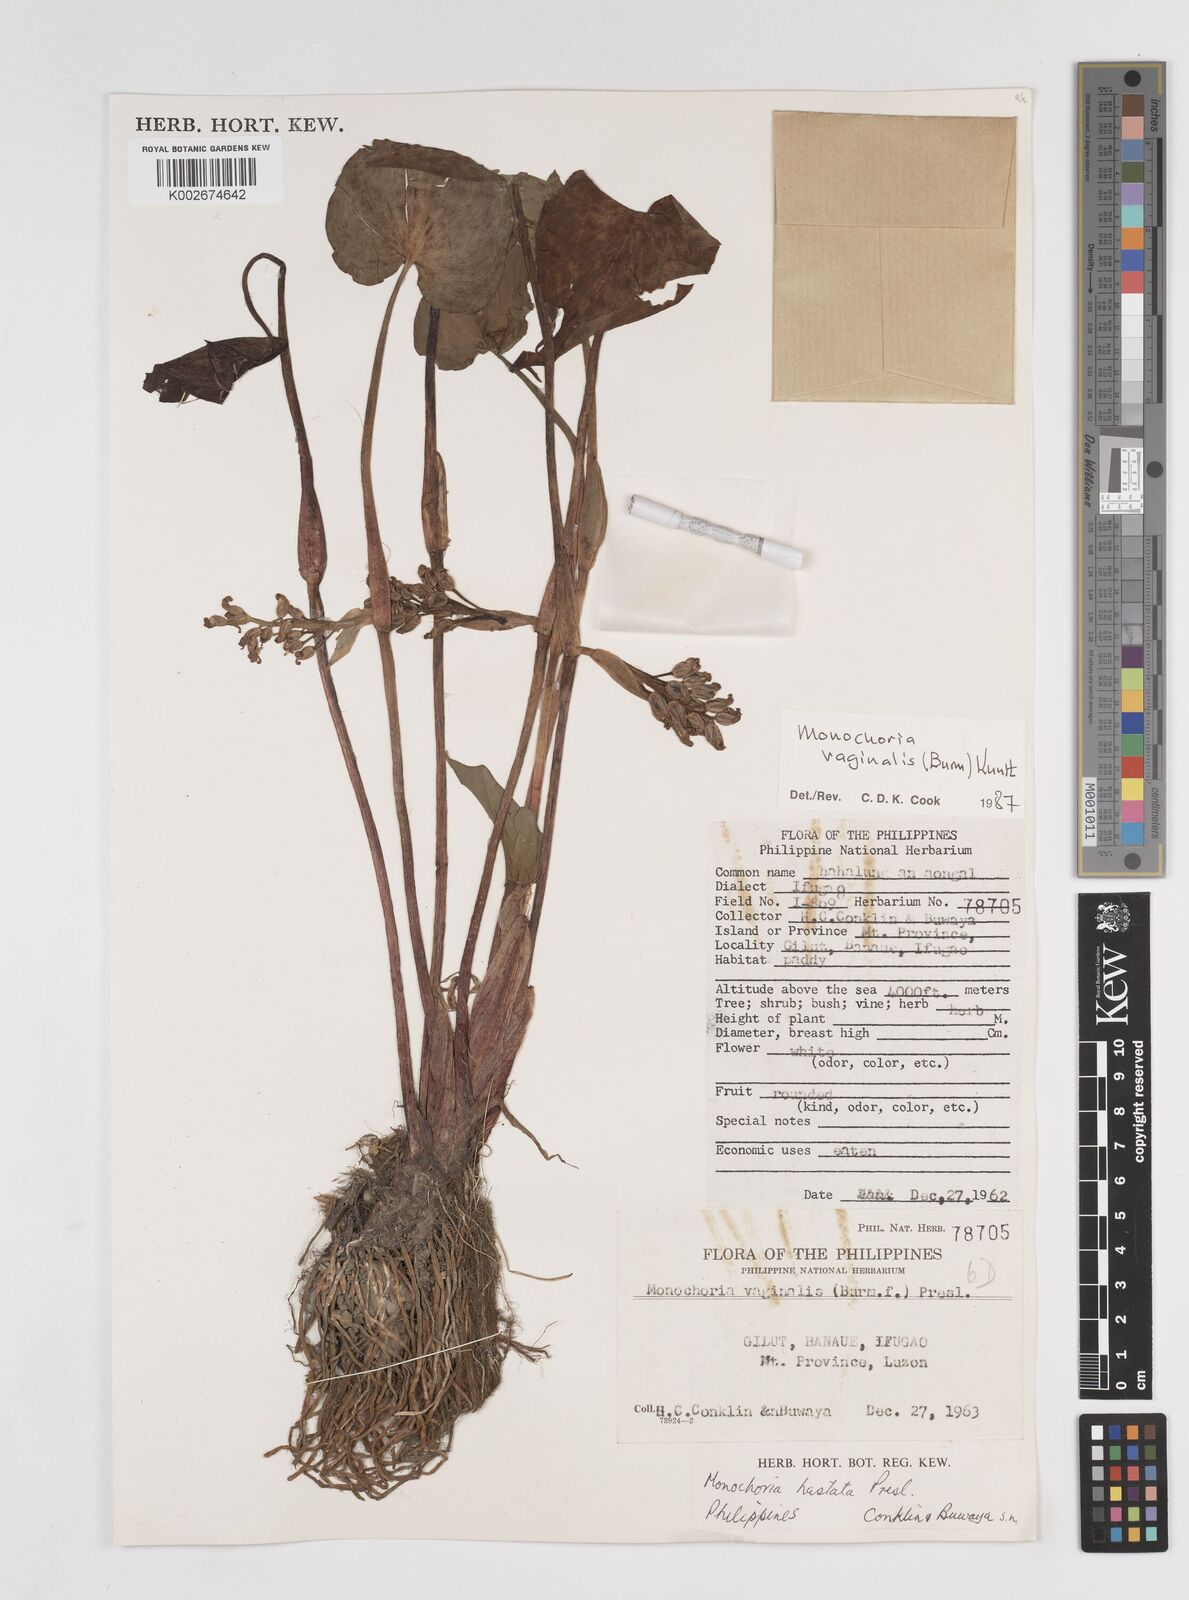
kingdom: Plantae
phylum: Tracheophyta
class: Liliopsida
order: Commelinales
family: Pontederiaceae
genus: Pontederia
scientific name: Pontederia vaginalis
